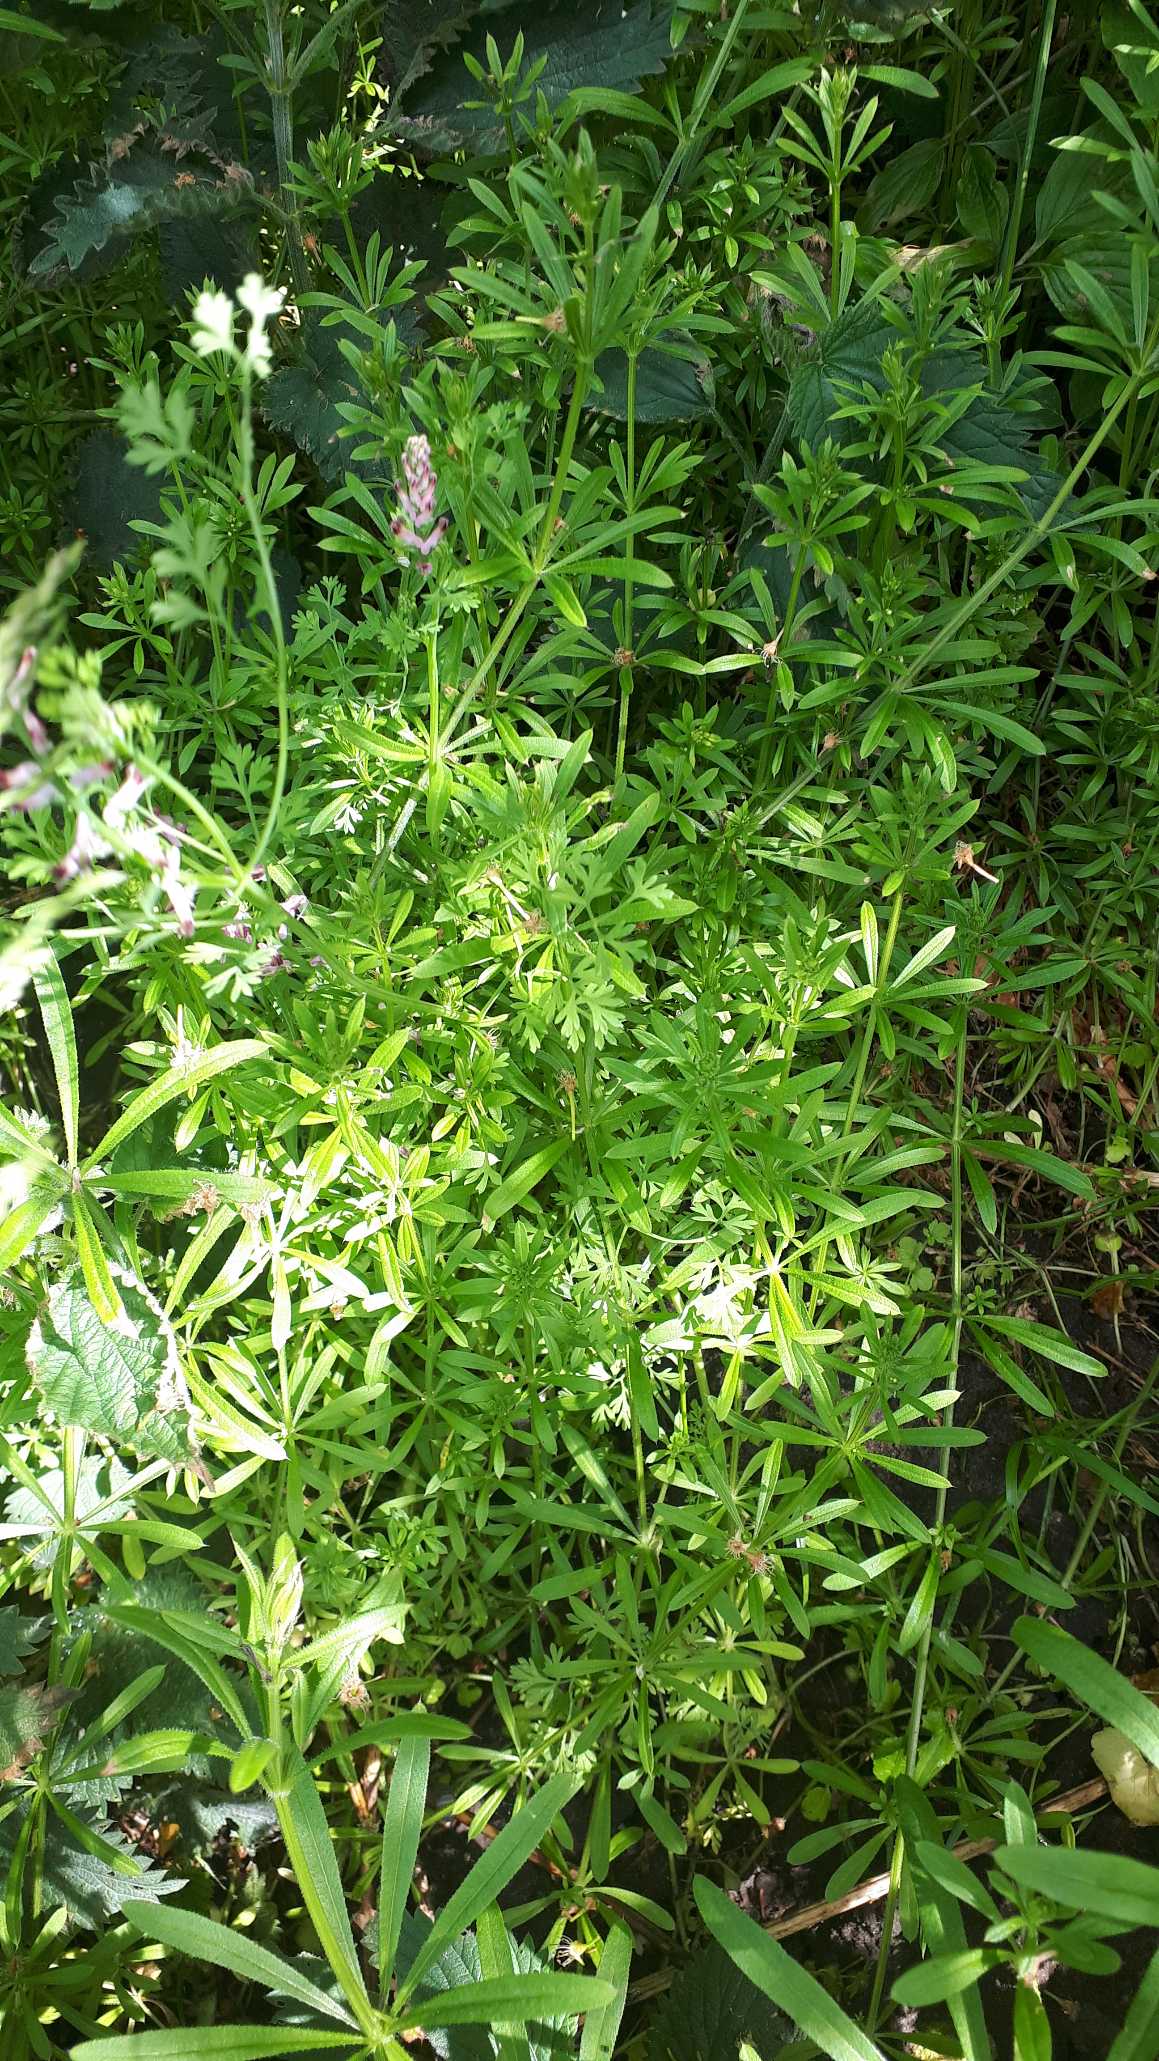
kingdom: Plantae
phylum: Tracheophyta
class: Magnoliopsida
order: Gentianales
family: Rubiaceae
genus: Galium
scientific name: Galium aparine
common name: Burre-snerre
